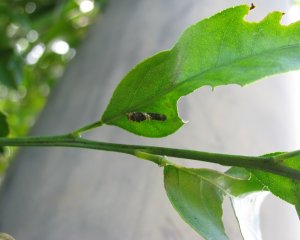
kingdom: Animalia
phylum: Arthropoda
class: Insecta
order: Lepidoptera
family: Papilionidae
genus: Papilio
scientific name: Papilio xuthus
